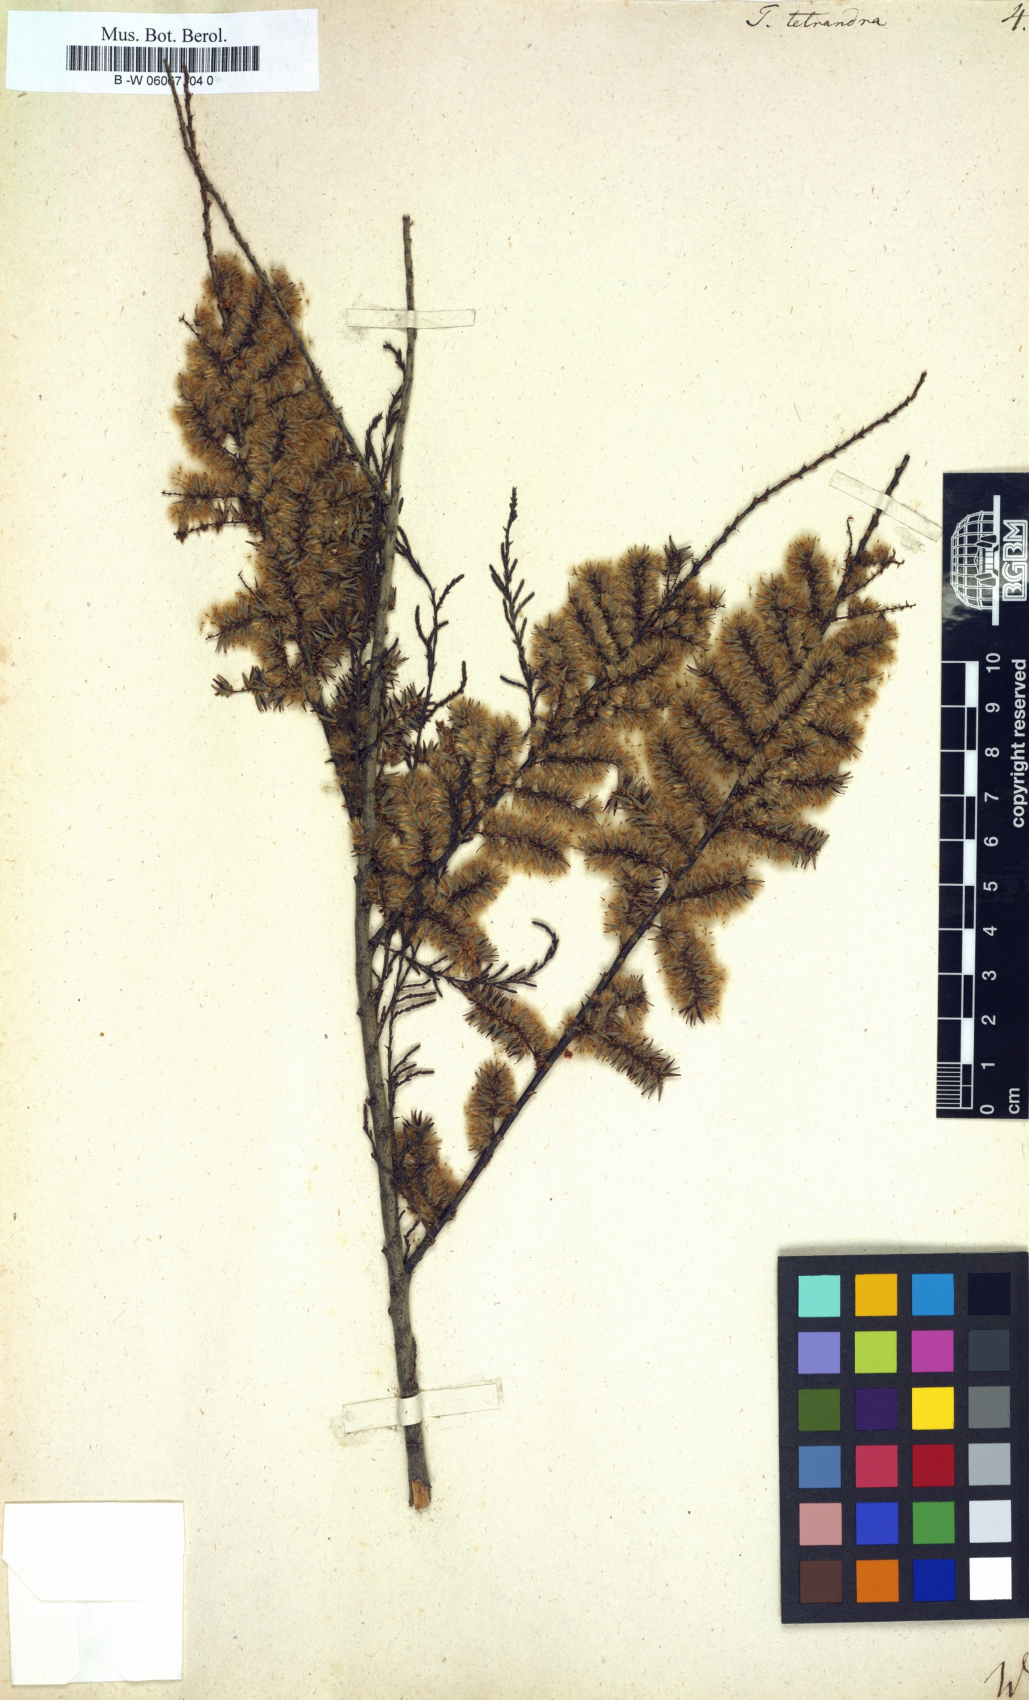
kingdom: Plantae
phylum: Tracheophyta
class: Magnoliopsida
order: Caryophyllales
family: Tamaricaceae
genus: Tamarix
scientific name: Tamarix tetrandra
